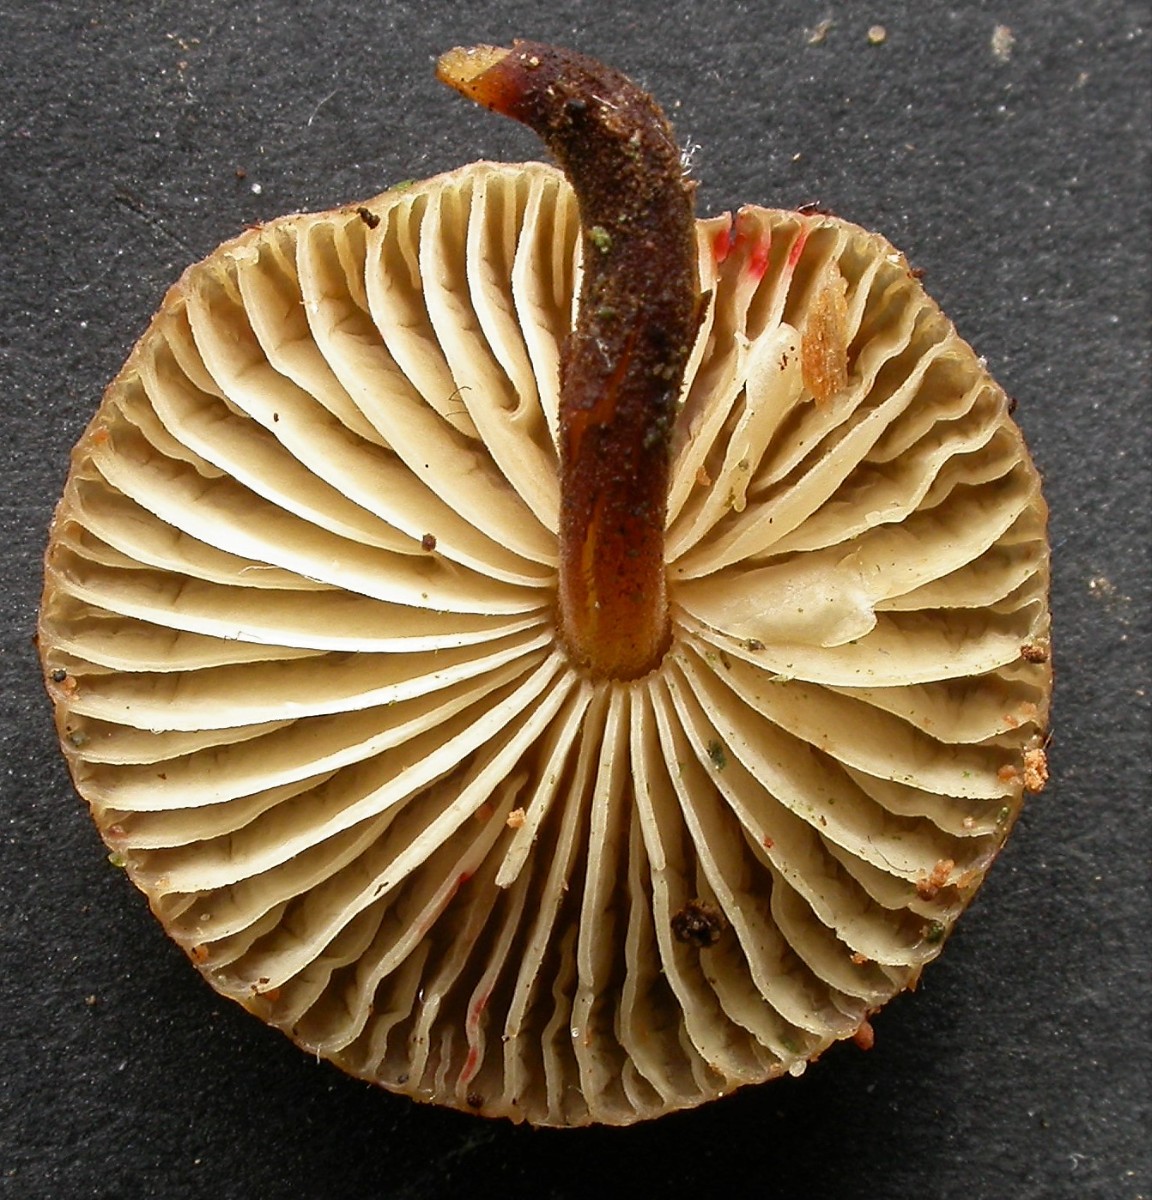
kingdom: Fungi
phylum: Basidiomycota
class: Agaricomycetes
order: Agaricales
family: Physalacriaceae
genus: Flammulina
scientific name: Flammulina elastica
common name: pile-fløjlsfod
